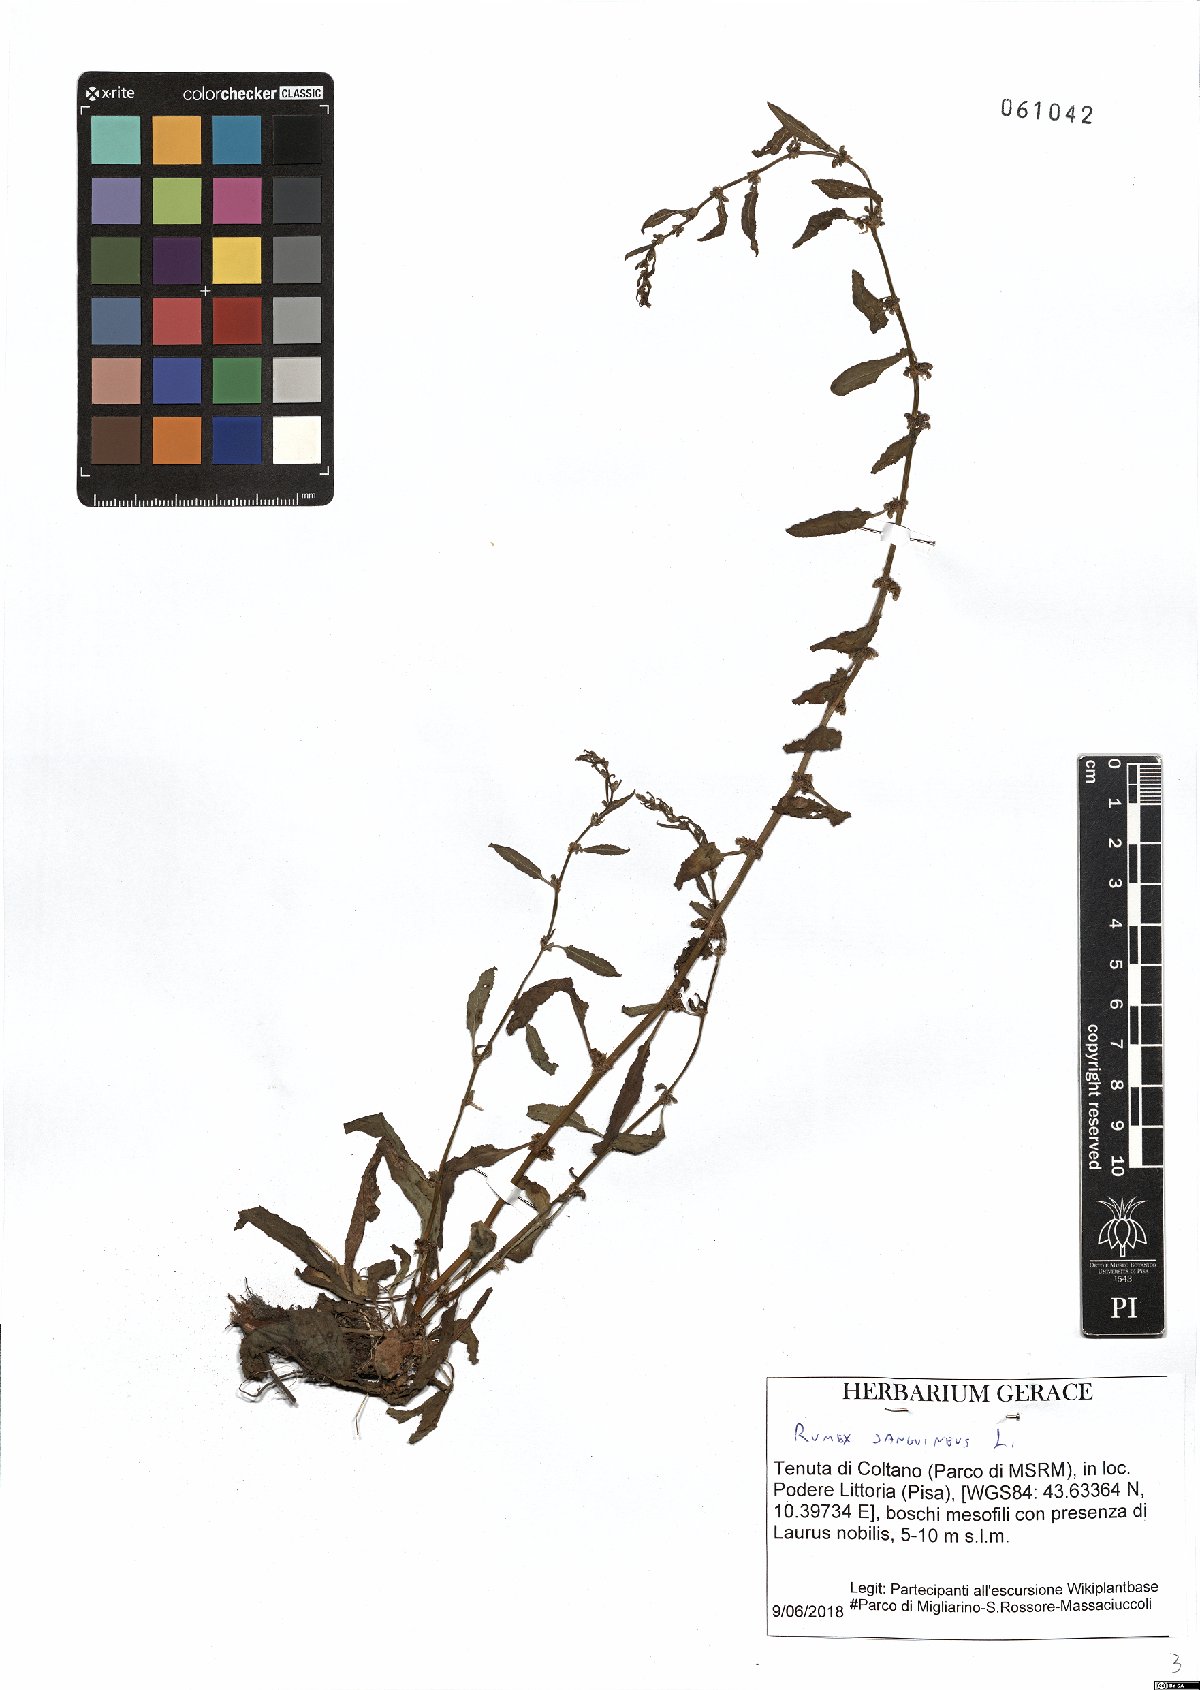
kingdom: Plantae
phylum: Tracheophyta
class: Magnoliopsida
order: Caryophyllales
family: Polygonaceae
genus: Rumex
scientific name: Rumex sanguineus
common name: Wood dock
